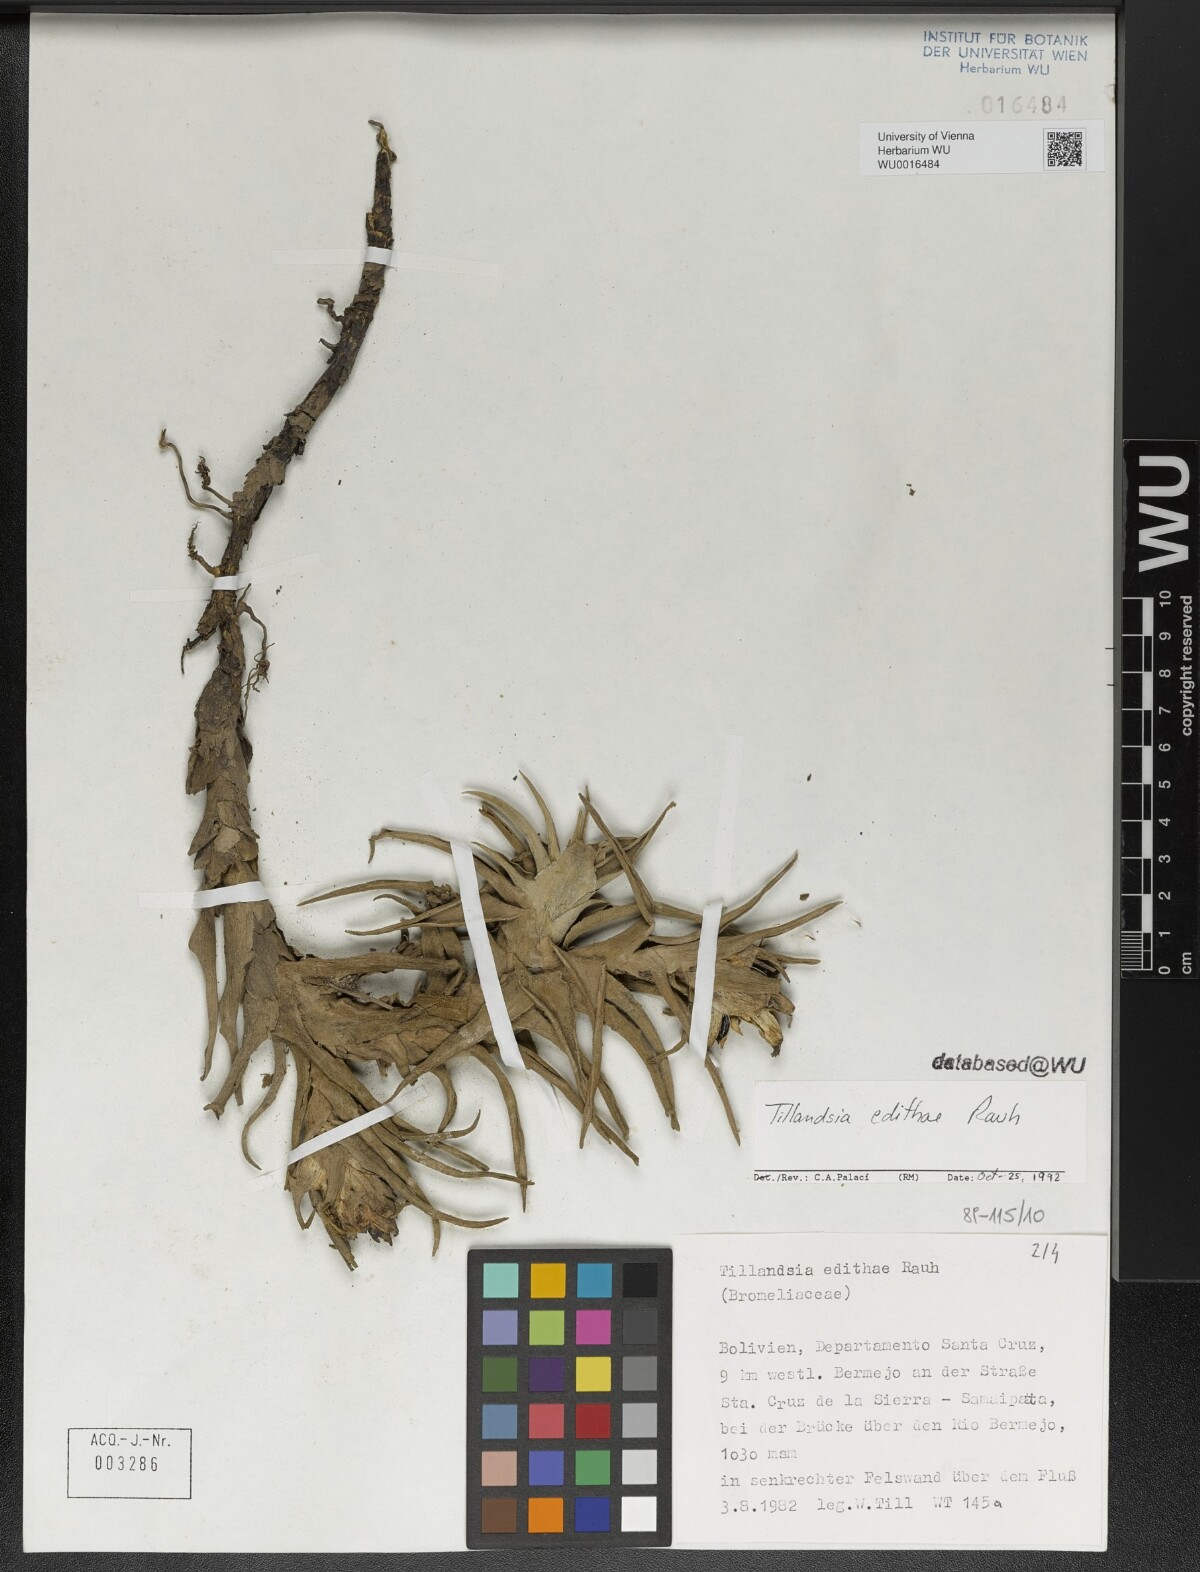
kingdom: Plantae
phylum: Tracheophyta
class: Liliopsida
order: Poales
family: Bromeliaceae
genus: Tillandsia
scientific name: Tillandsia edithae
